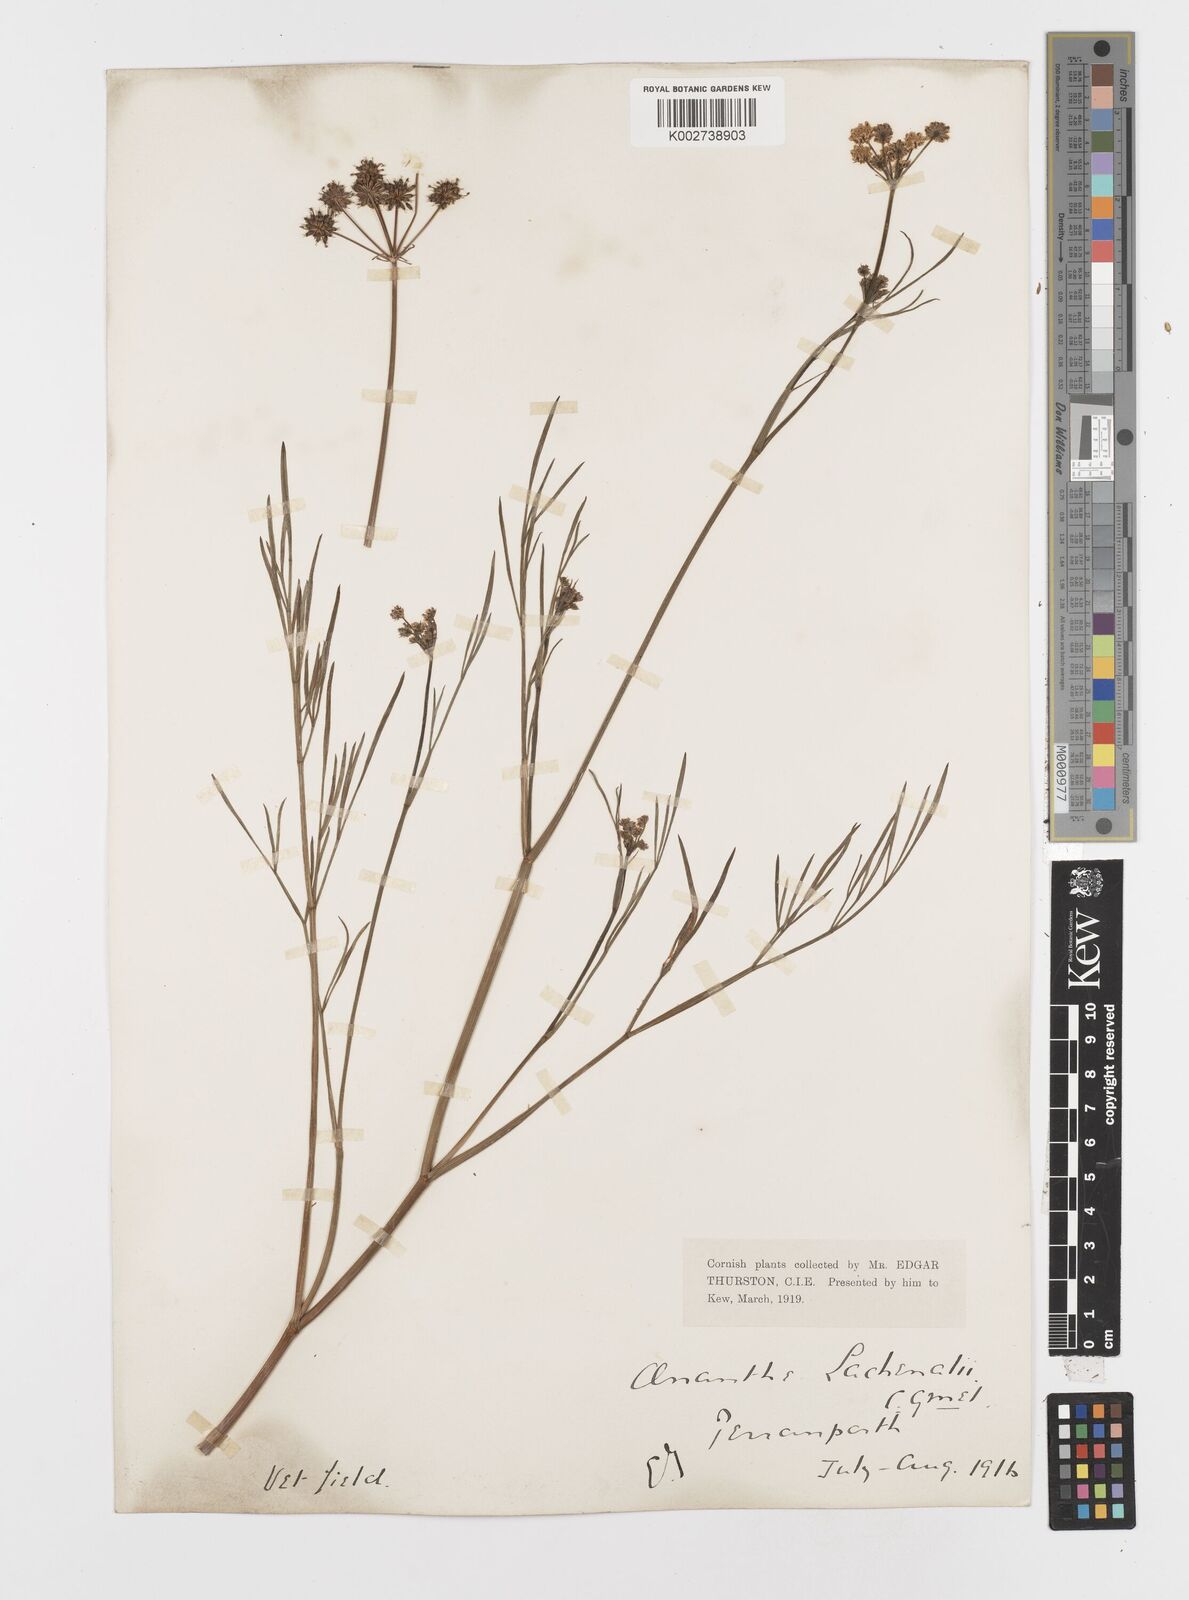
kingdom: Plantae
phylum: Tracheophyta
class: Magnoliopsida
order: Apiales
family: Apiaceae
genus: Oenanthe
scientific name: Oenanthe lachenalii
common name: Parsley water-dropwort
